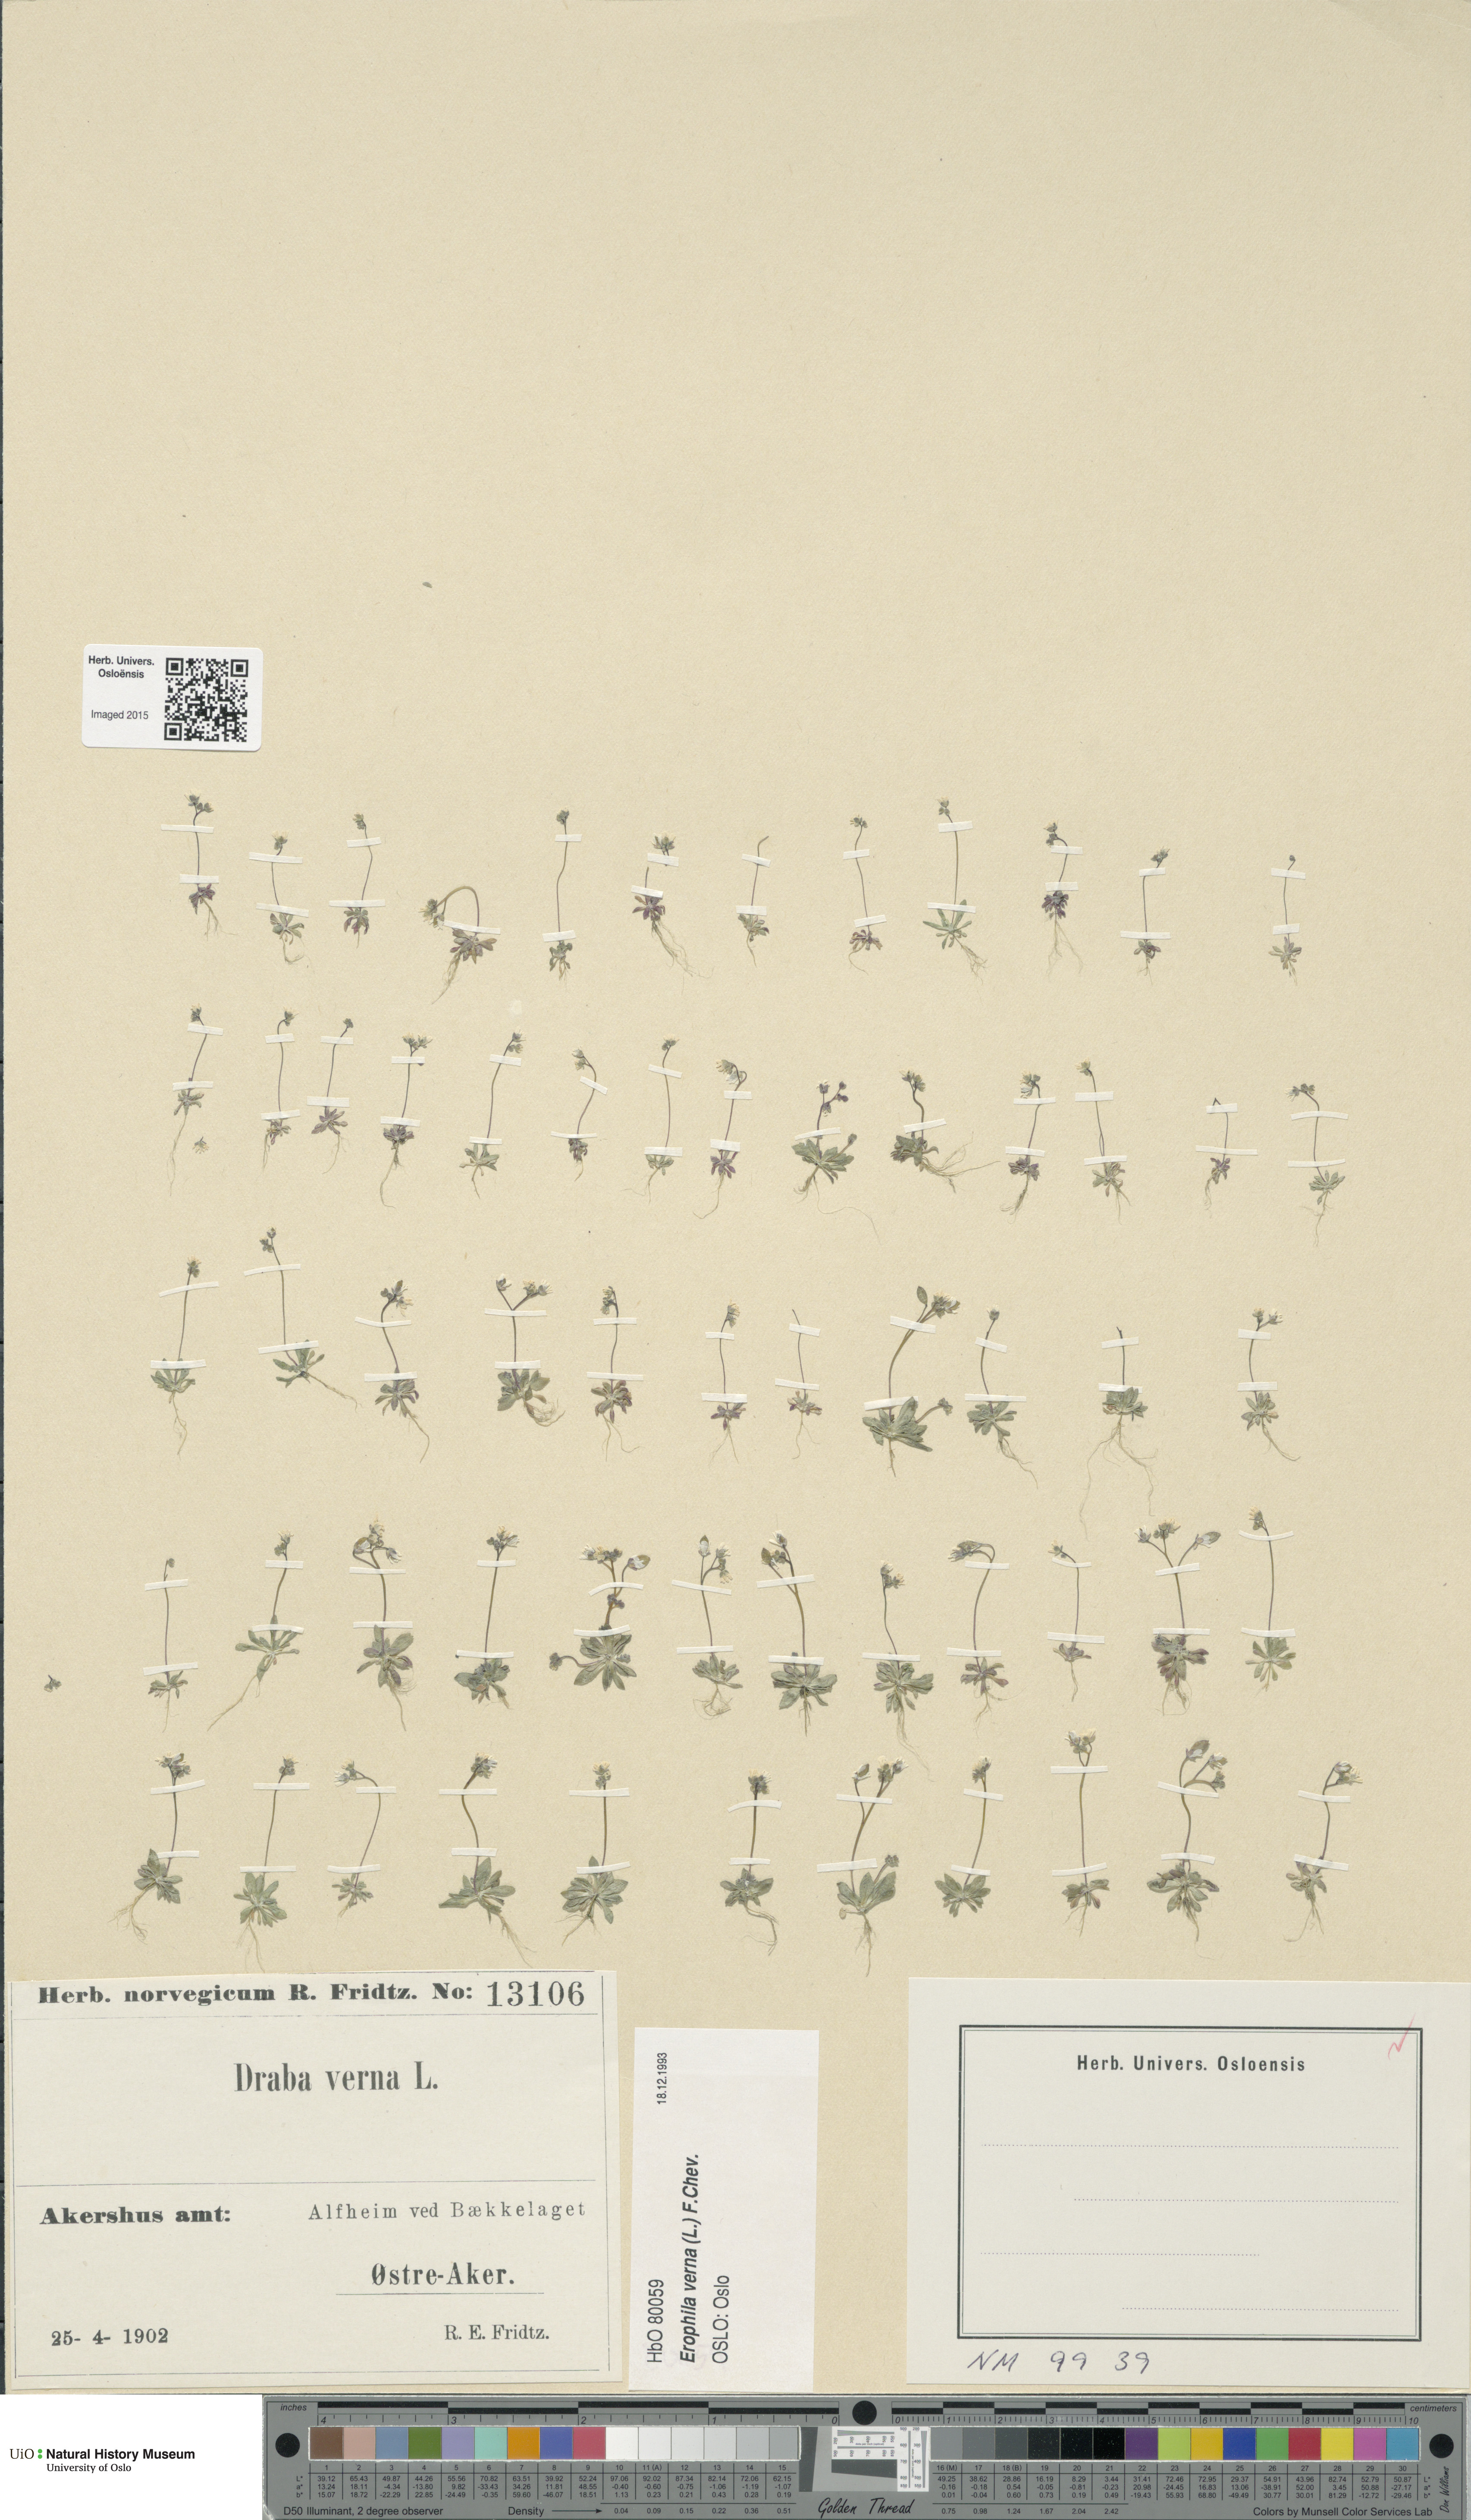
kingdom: Plantae
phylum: Tracheophyta
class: Magnoliopsida
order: Brassicales
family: Brassicaceae
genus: Draba
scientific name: Draba verna
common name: Spring draba
